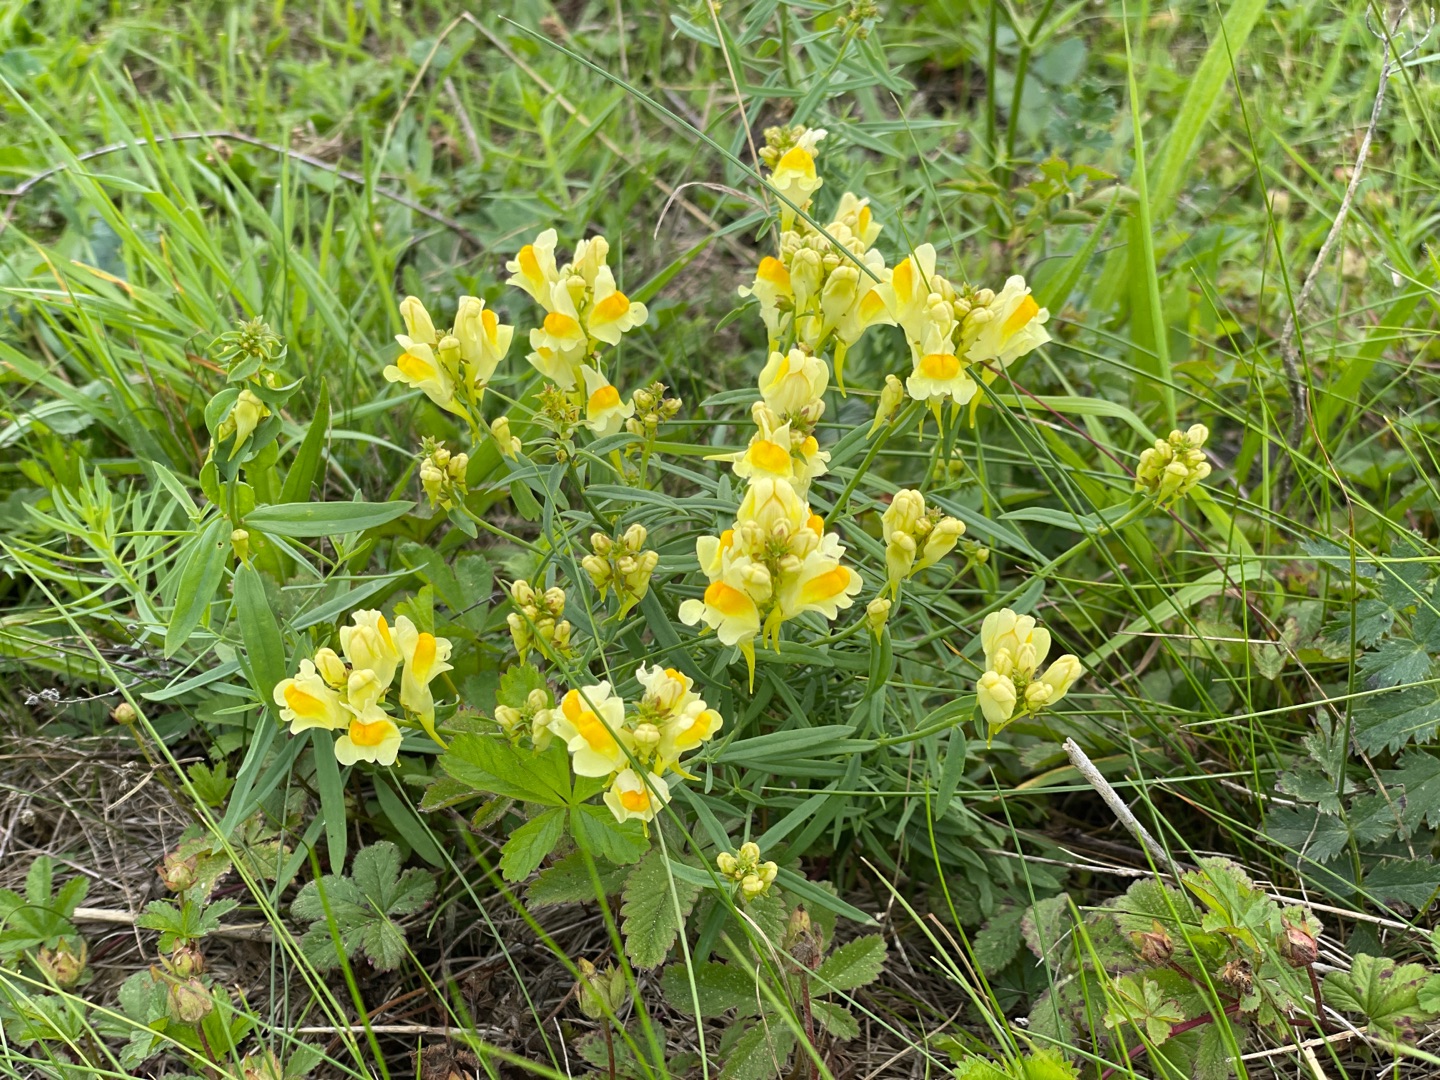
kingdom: Plantae
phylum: Tracheophyta
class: Magnoliopsida
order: Lamiales
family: Plantaginaceae
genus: Linaria
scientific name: Linaria vulgaris
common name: Almindelig torskemund
